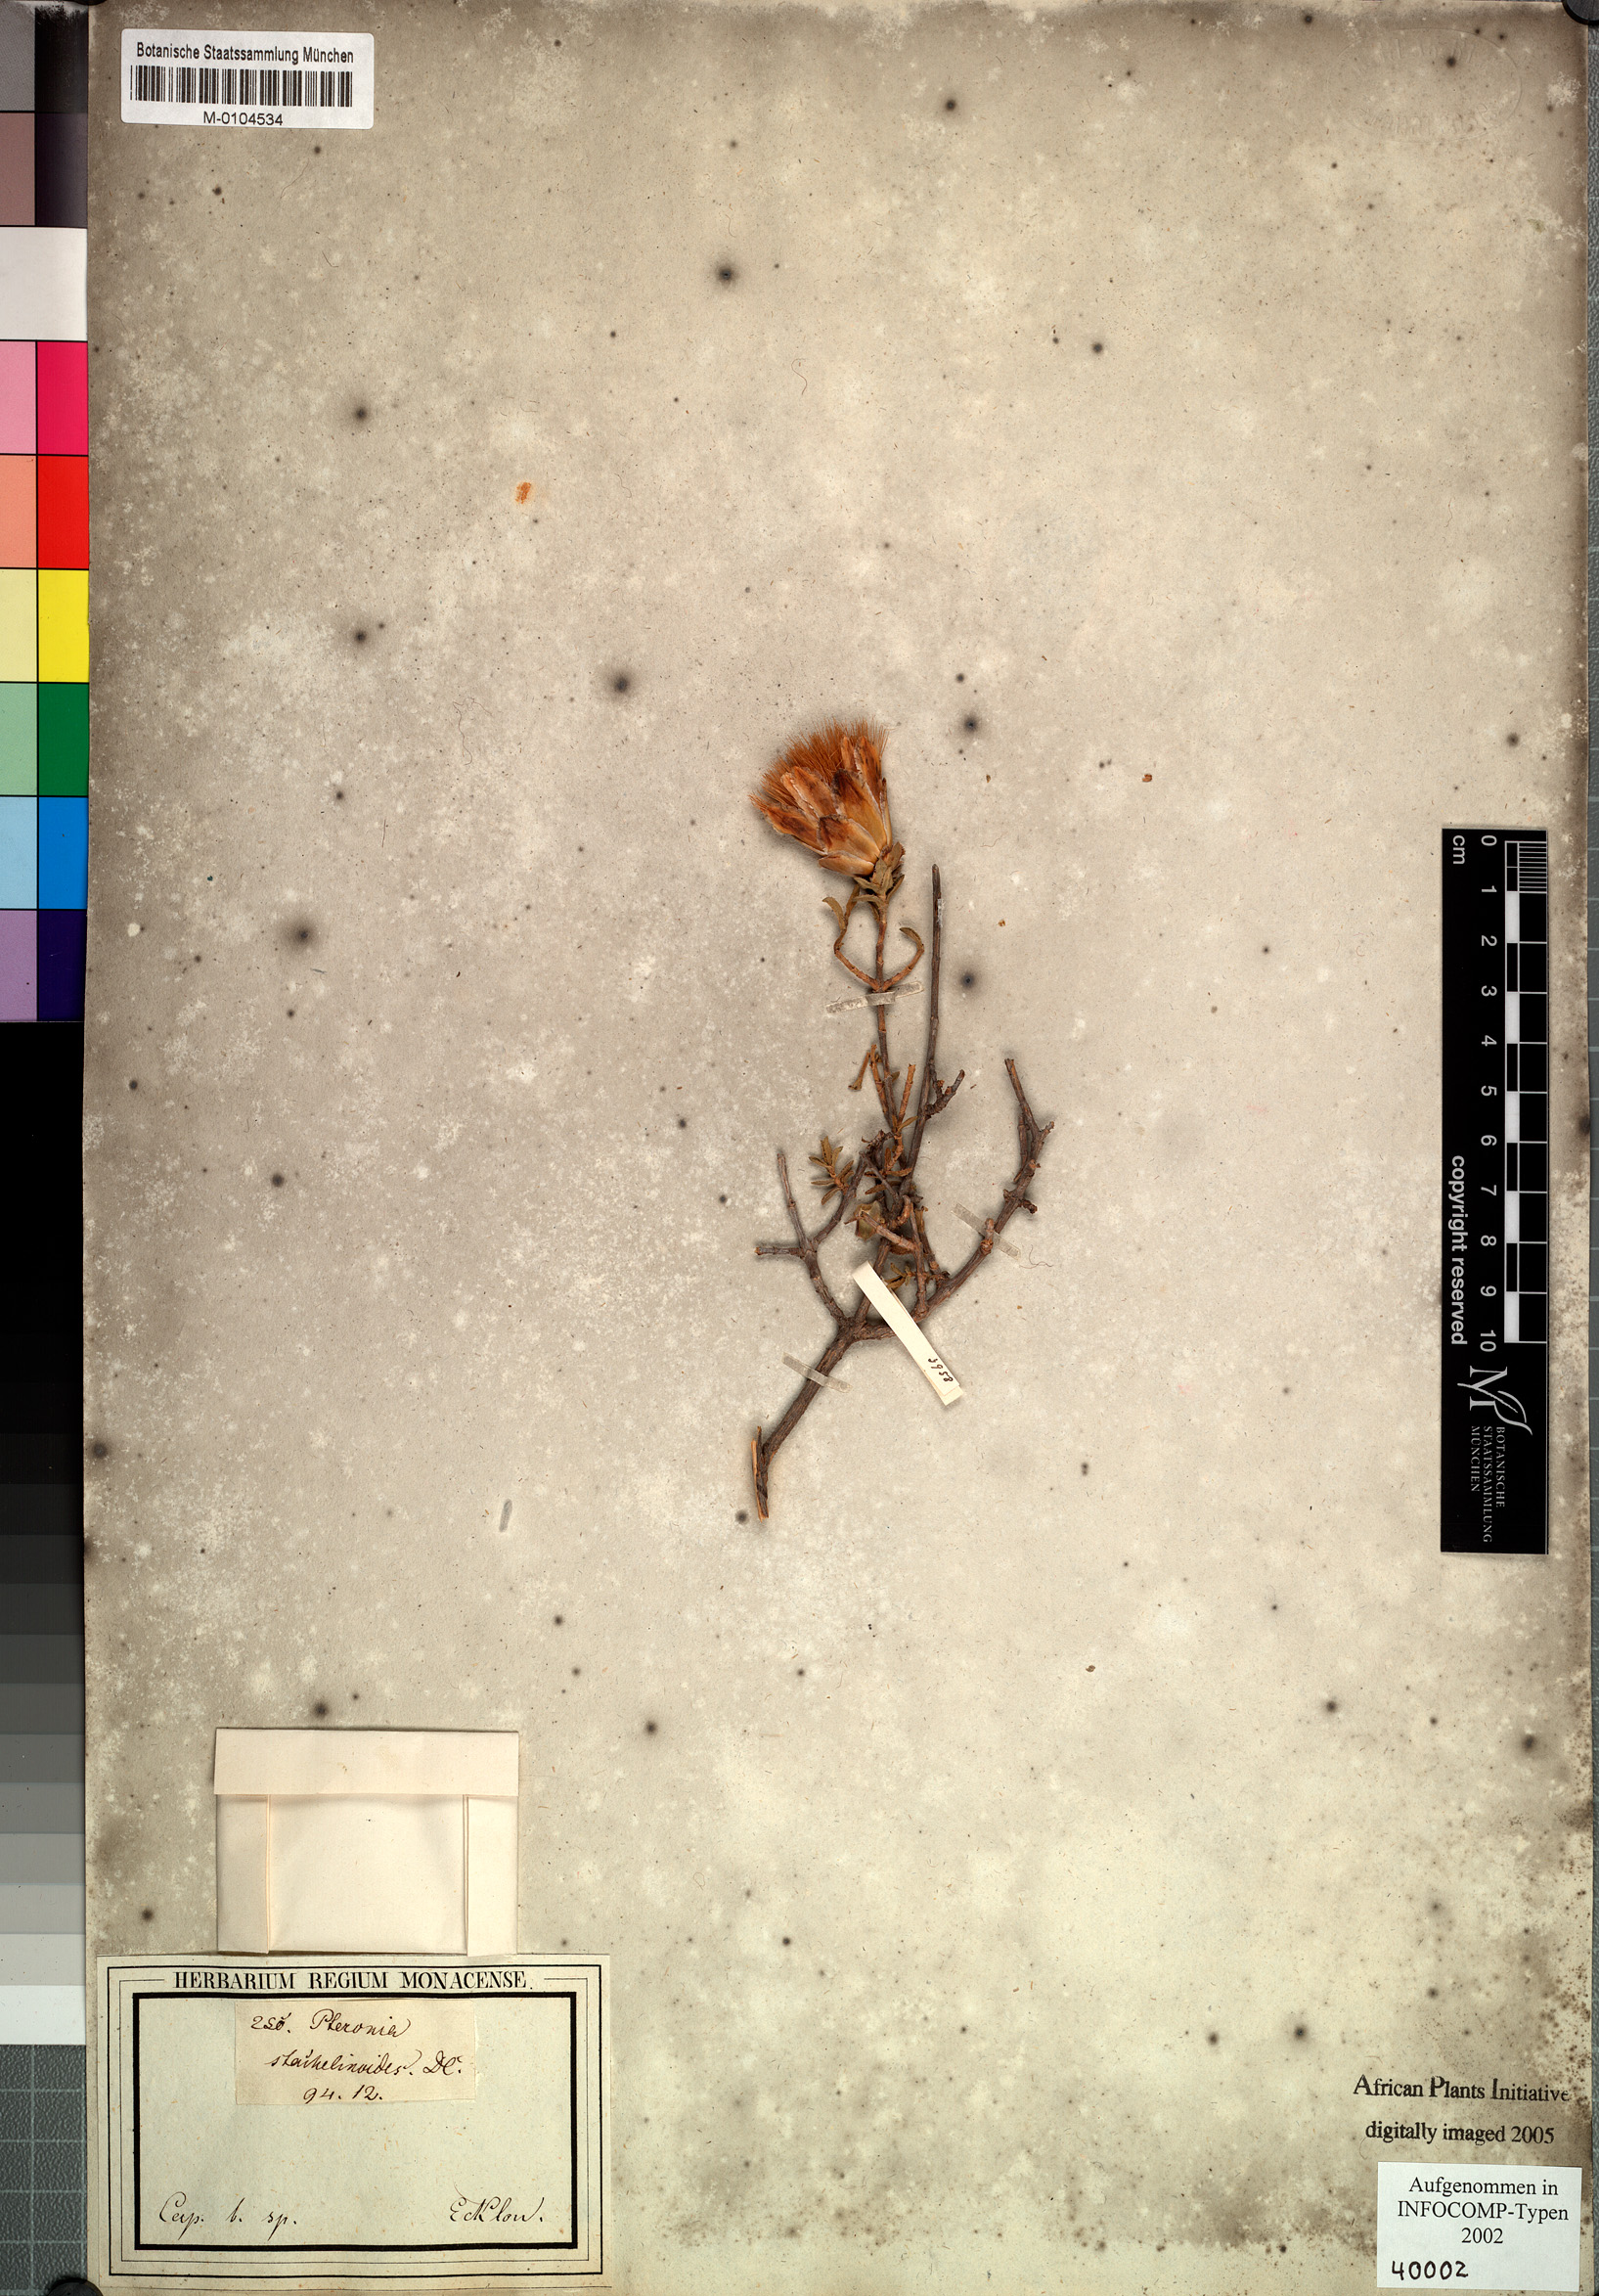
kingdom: Plantae
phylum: Tracheophyta
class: Magnoliopsida
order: Asterales
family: Asteraceae
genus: Pteronia
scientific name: Pteronia staehelinoides
